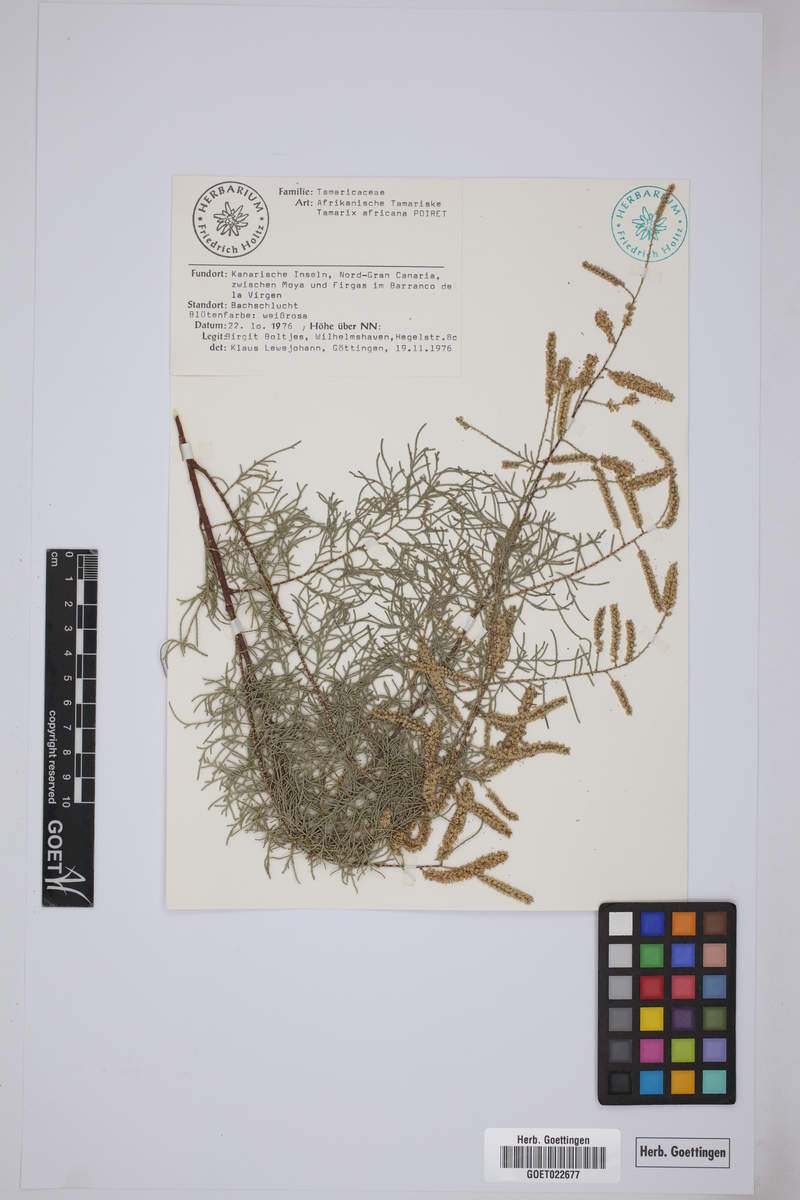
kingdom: Plantae
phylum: Tracheophyta
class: Magnoliopsida
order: Caryophyllales
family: Tamaricaceae
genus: Tamarix
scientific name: Tamarix africana
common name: African tamarisk
